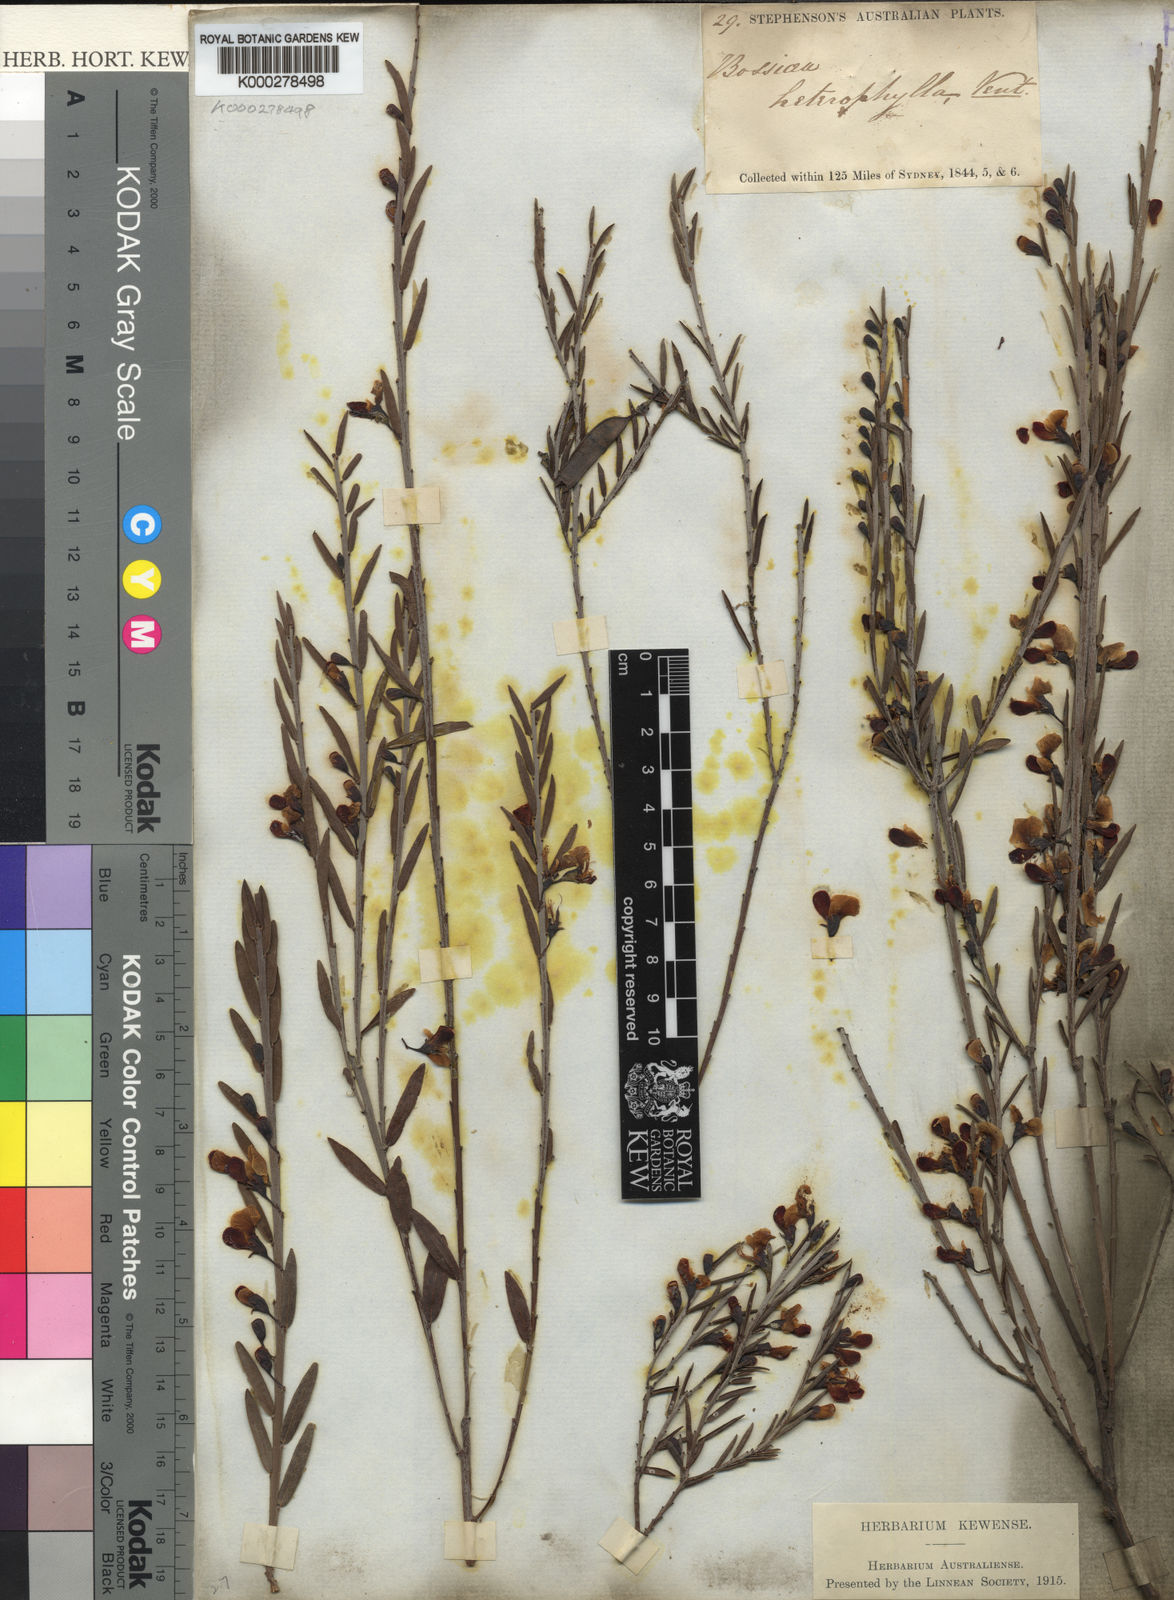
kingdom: Plantae
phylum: Tracheophyta
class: Magnoliopsida
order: Fabales
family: Fabaceae
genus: Bossiaea
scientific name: Bossiaea heterophylla
